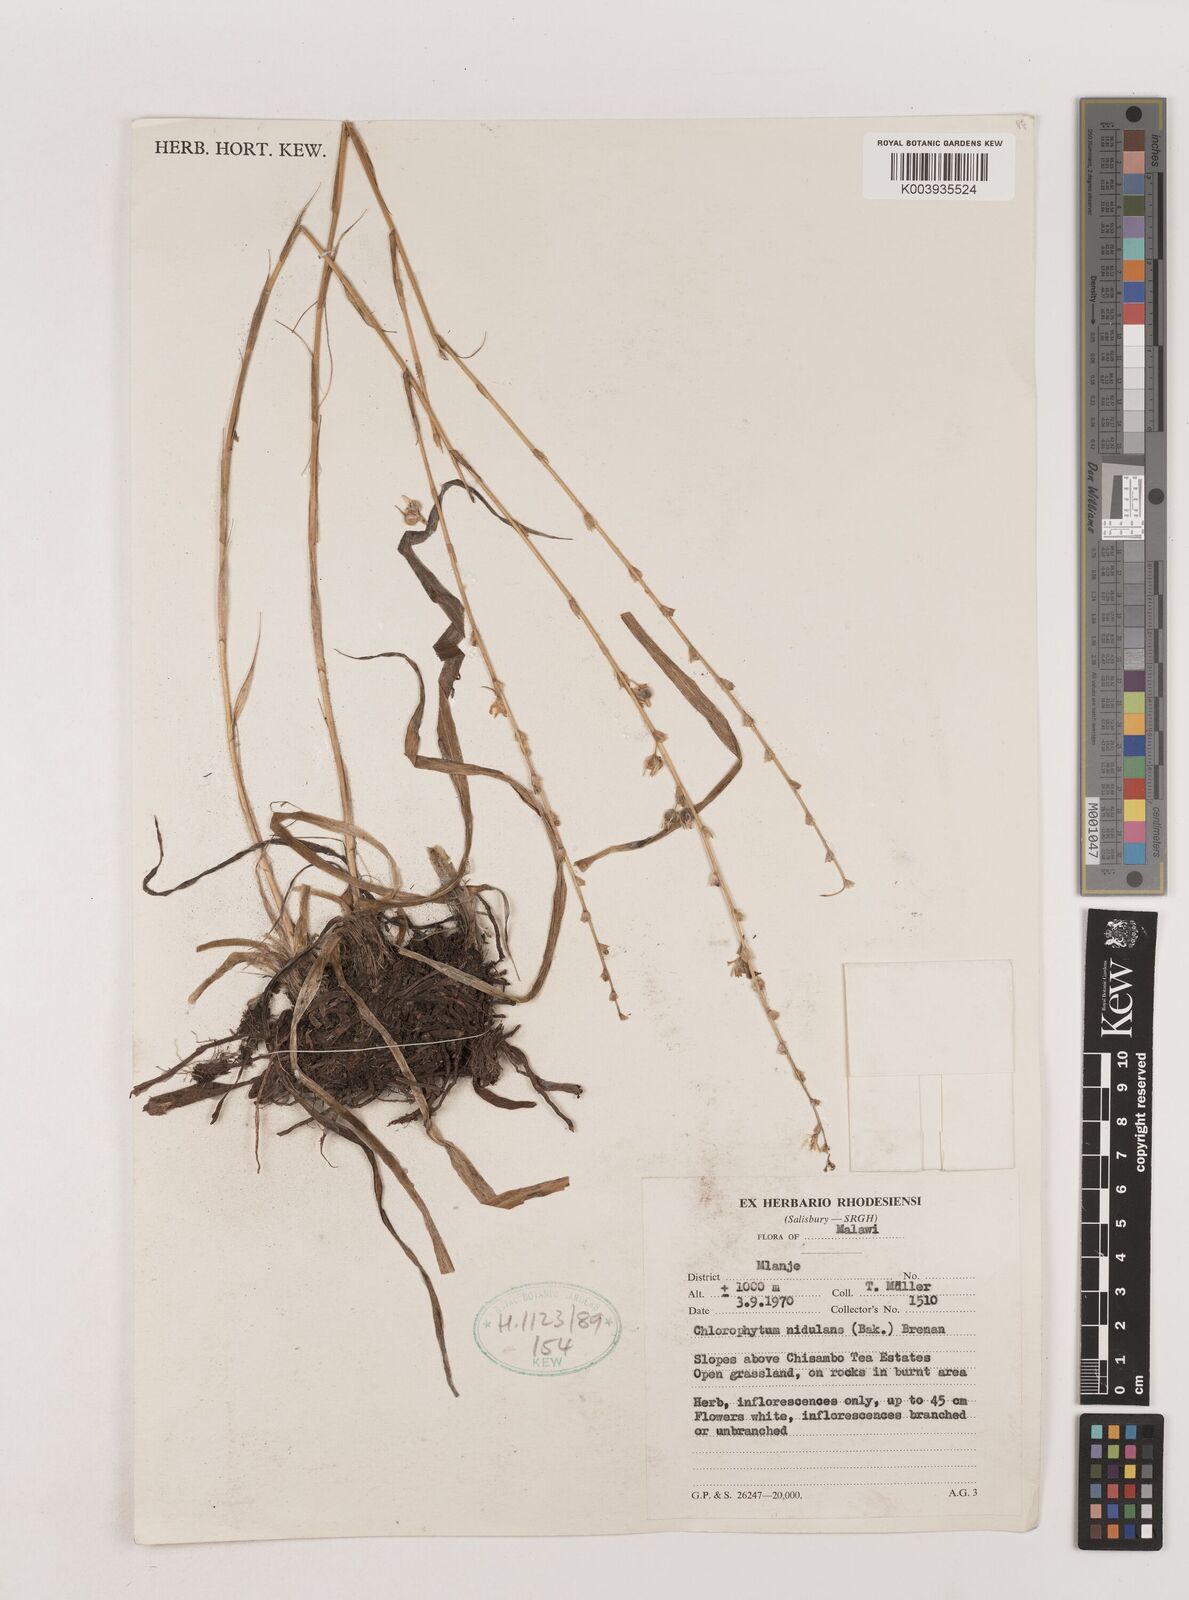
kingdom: Plantae
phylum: Tracheophyta
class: Liliopsida
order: Asparagales
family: Asparagaceae
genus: Chlorophytum
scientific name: Chlorophytum nidulans
